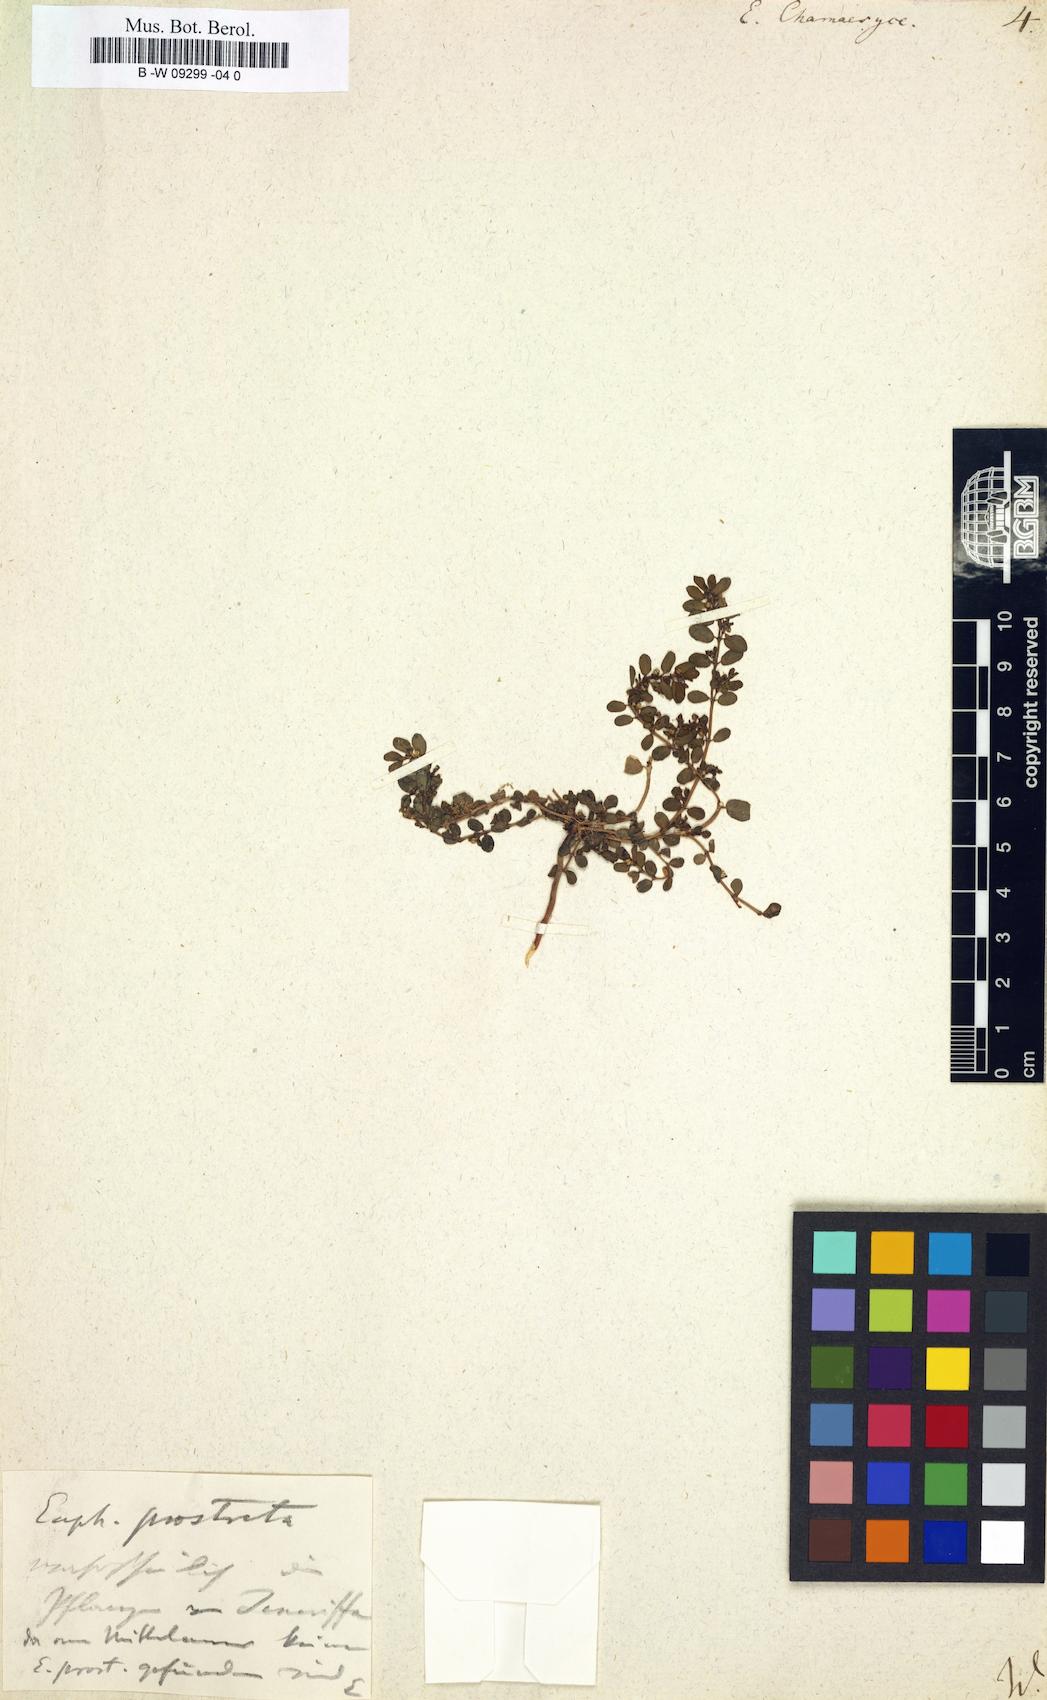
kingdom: Plantae
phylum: Tracheophyta
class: Magnoliopsida
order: Malpighiales
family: Euphorbiaceae
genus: Euphorbia
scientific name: Euphorbia chamaesyce
